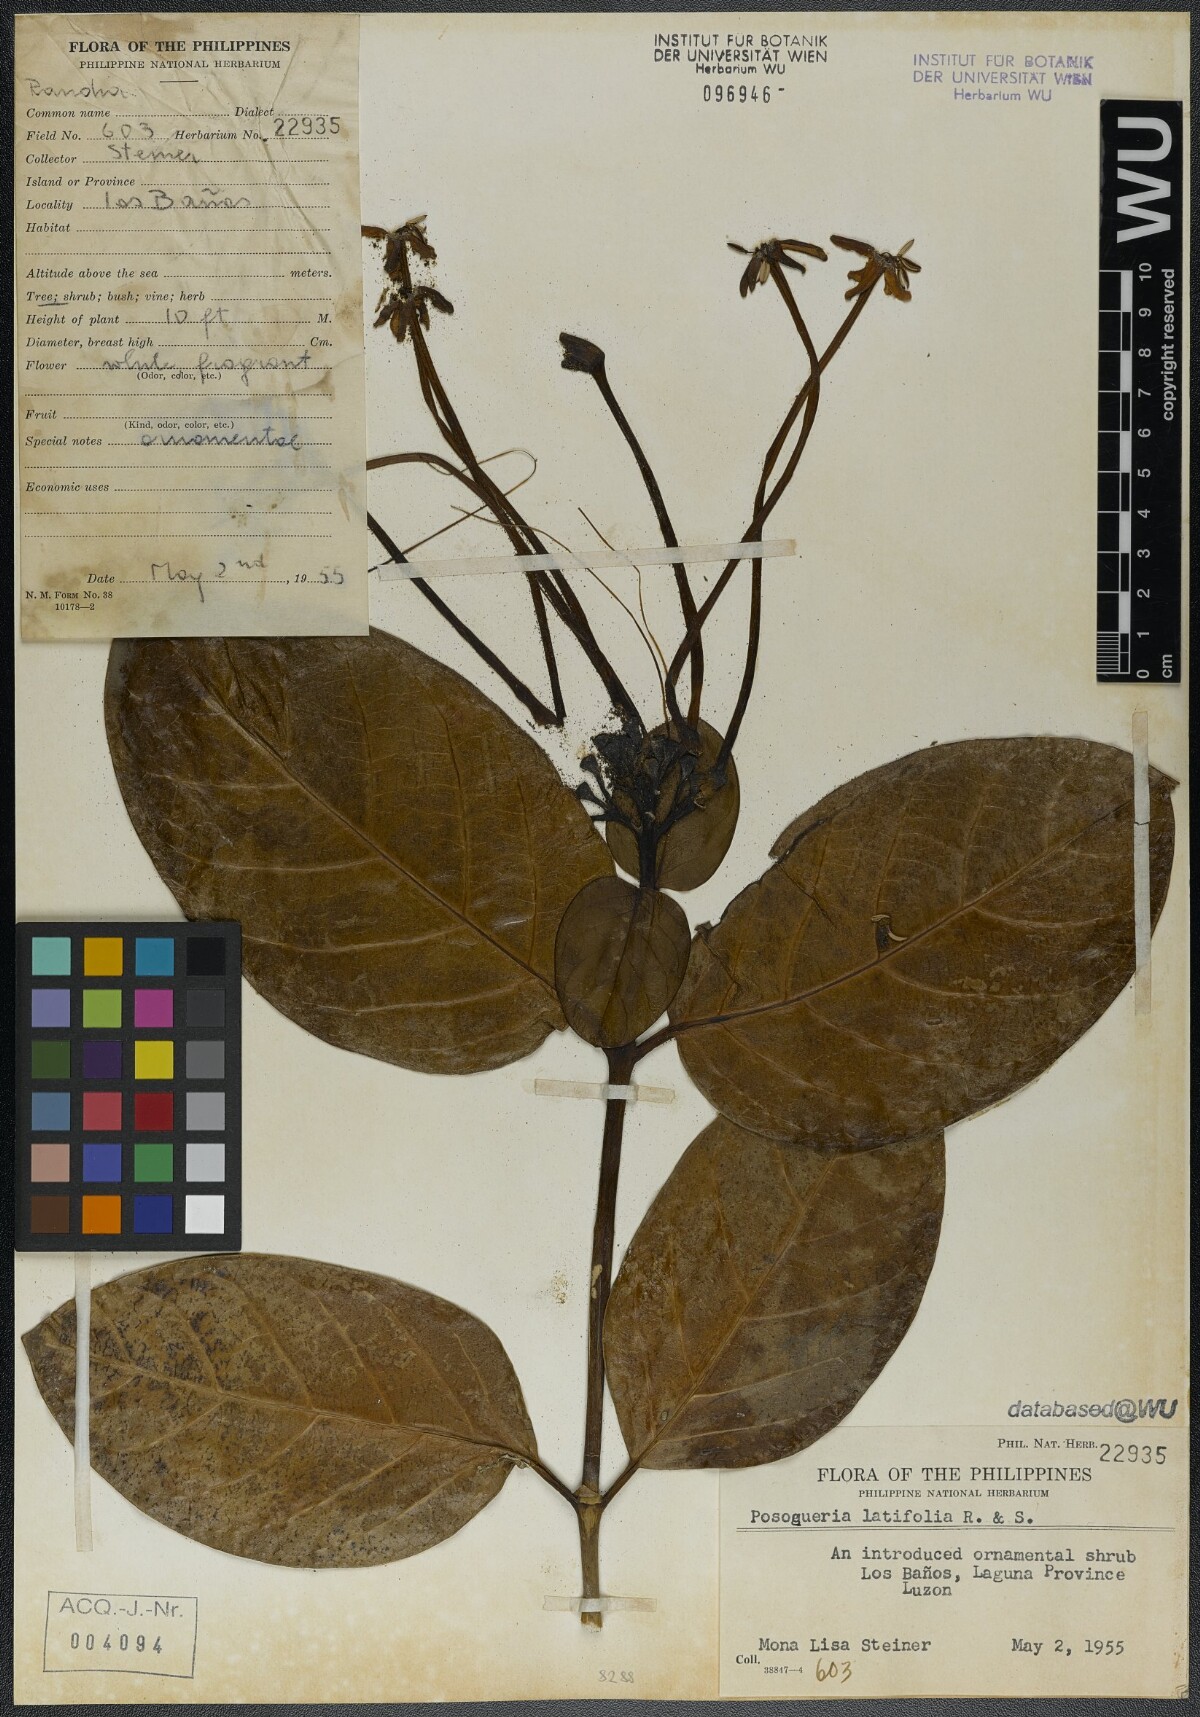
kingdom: Plantae
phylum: Tracheophyta
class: Magnoliopsida
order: Gentianales
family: Rubiaceae
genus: Posoqueria
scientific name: Posoqueria latifolia
